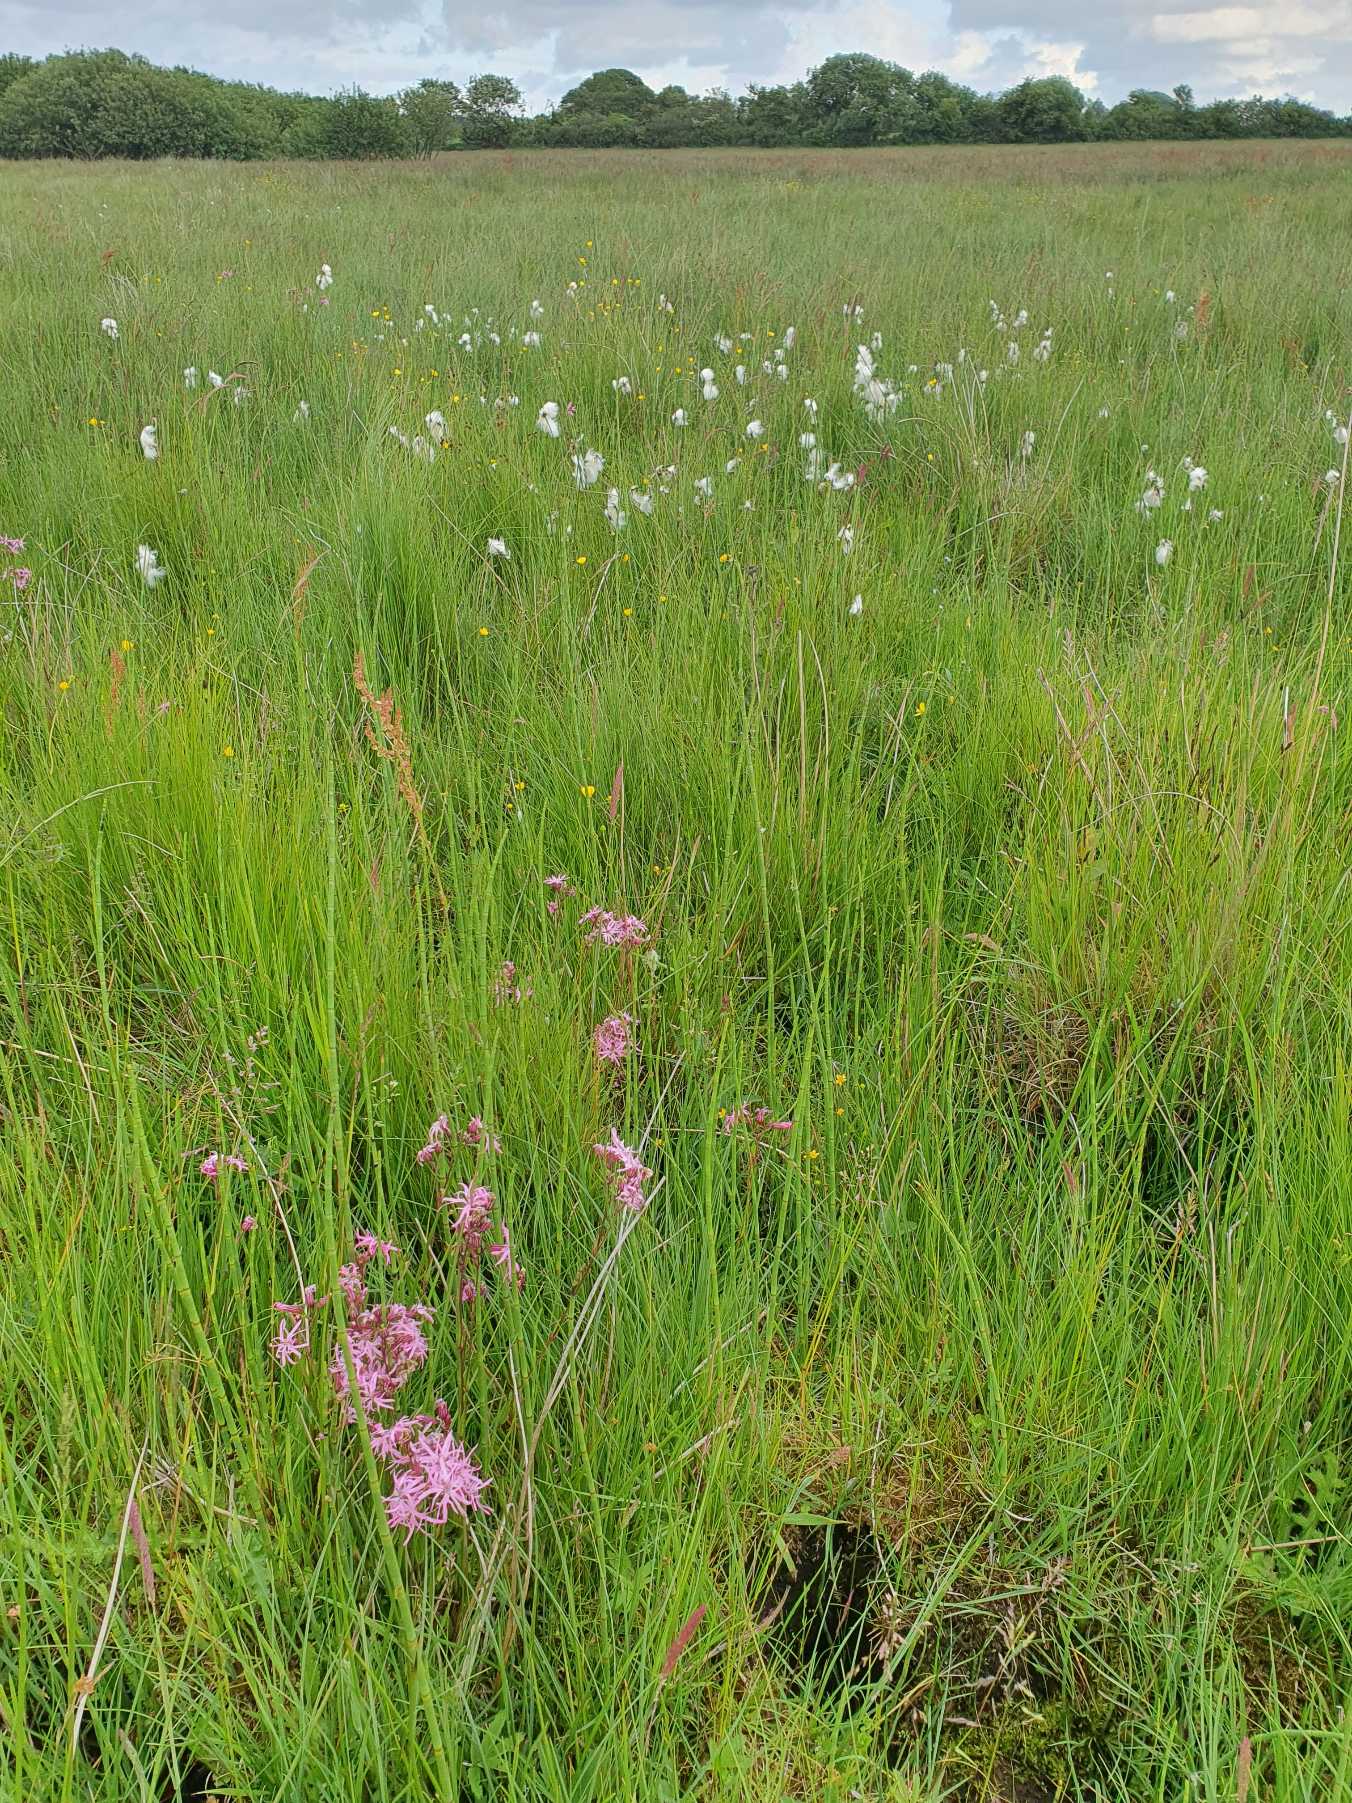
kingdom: Plantae
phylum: Tracheophyta
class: Magnoliopsida
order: Caryophyllales
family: Caryophyllaceae
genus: Silene
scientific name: Silene flos-cuculi
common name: Trævlekrone
